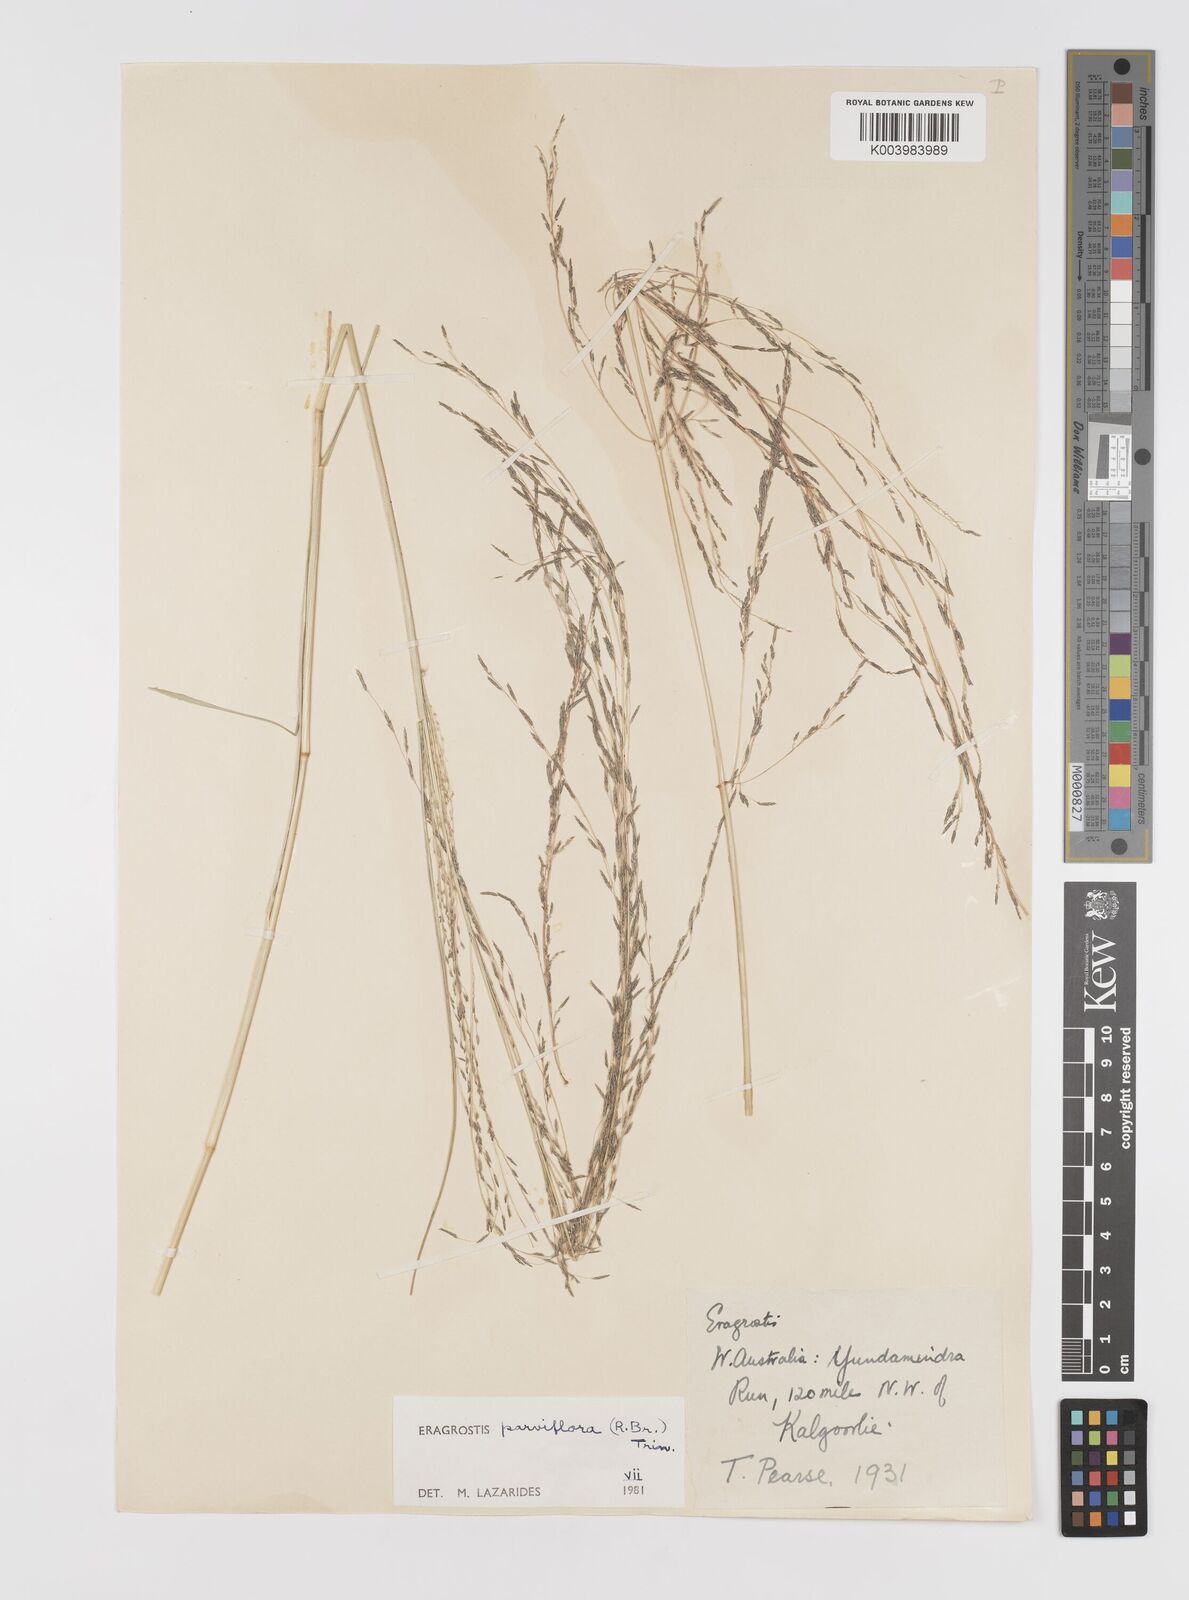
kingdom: Plantae
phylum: Tracheophyta
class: Liliopsida
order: Poales
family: Poaceae
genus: Eragrostis
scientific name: Eragrostis parviflora
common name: Weeping love-grass
